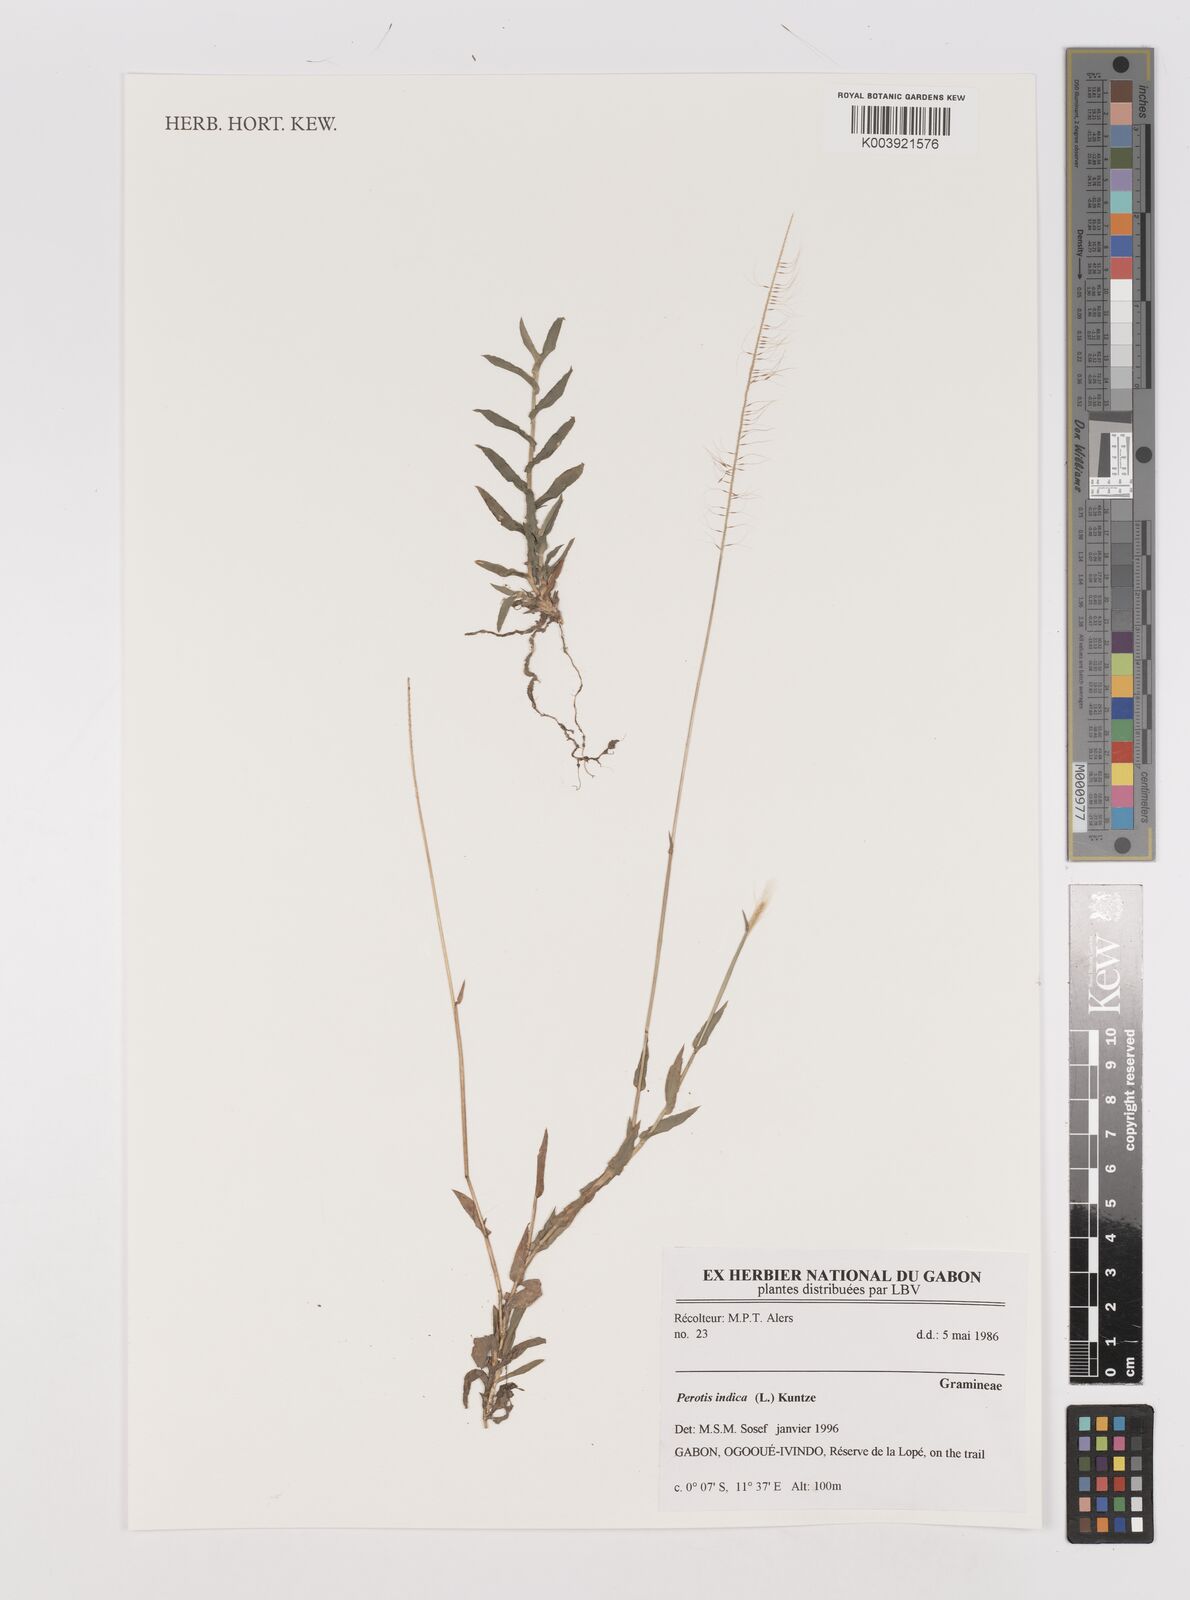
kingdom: Plantae
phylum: Tracheophyta
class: Liliopsida
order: Poales
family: Poaceae
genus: Perotis
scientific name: Perotis indica
